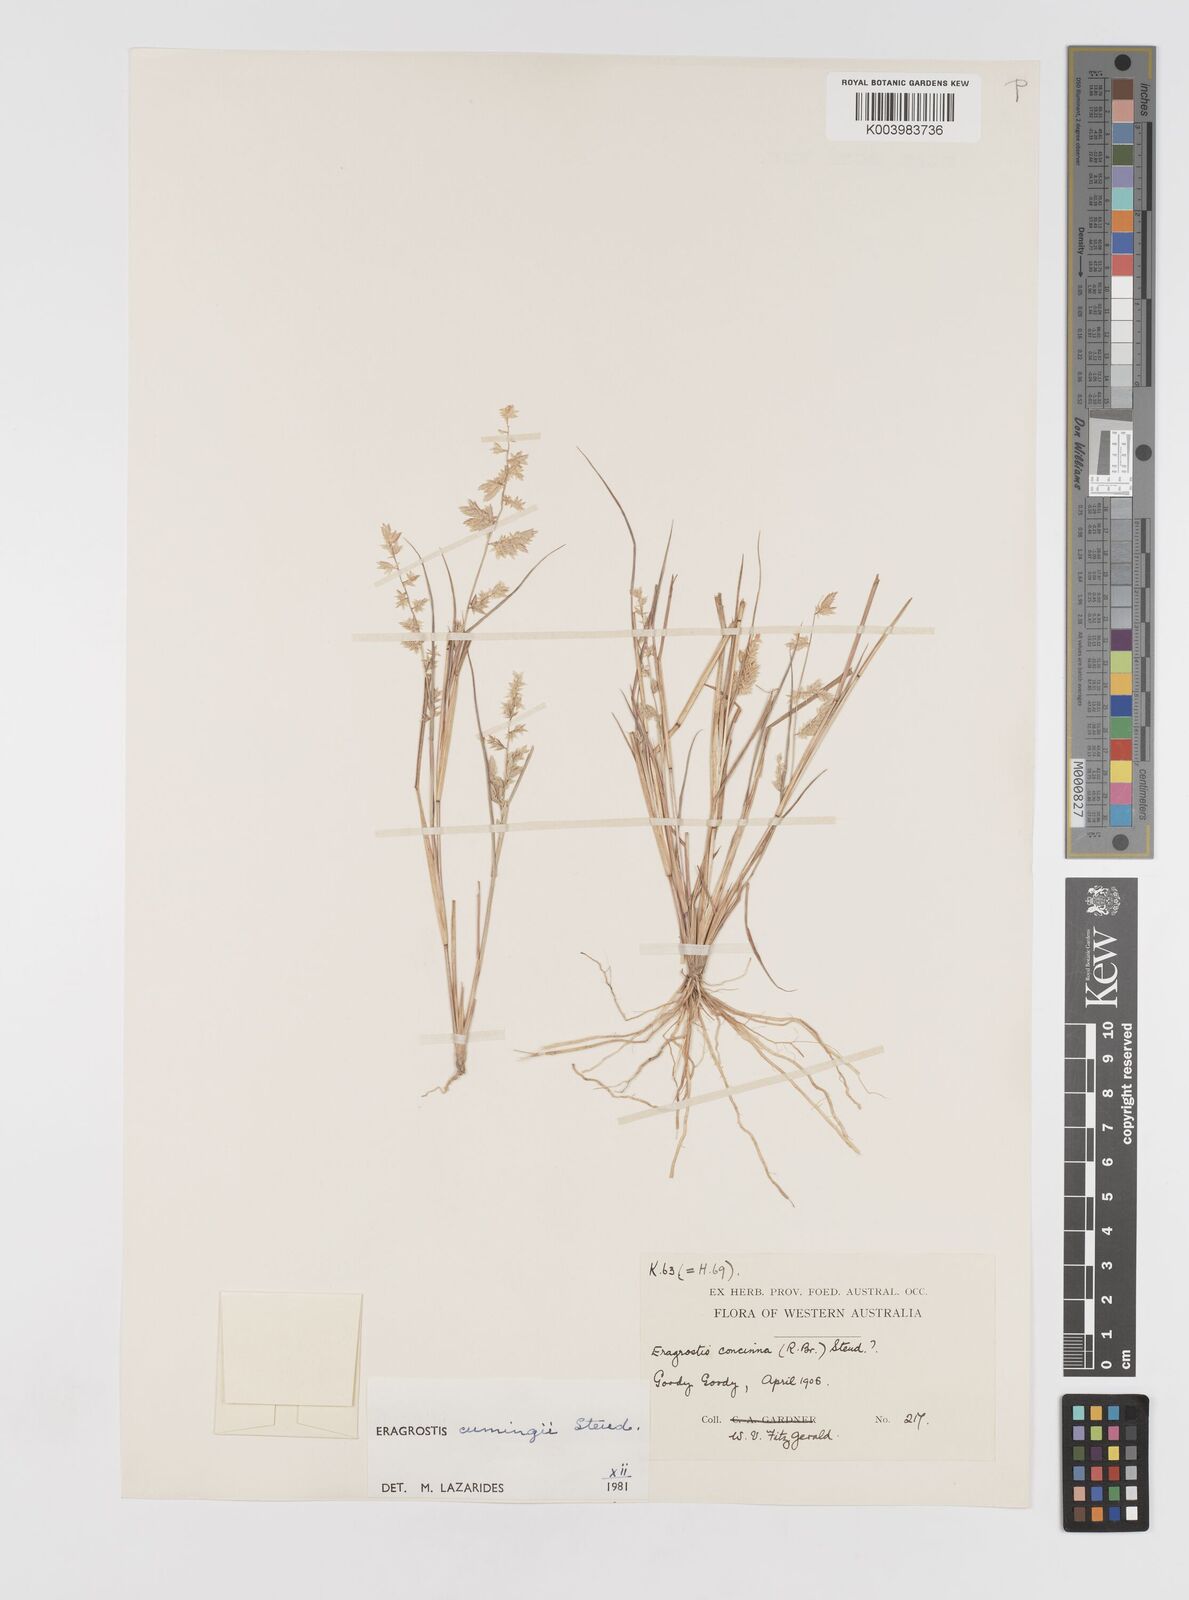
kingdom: Plantae
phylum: Tracheophyta
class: Liliopsida
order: Poales
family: Poaceae
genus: Eragrostis
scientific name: Eragrostis cumingii
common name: Cuming's lovegrass
